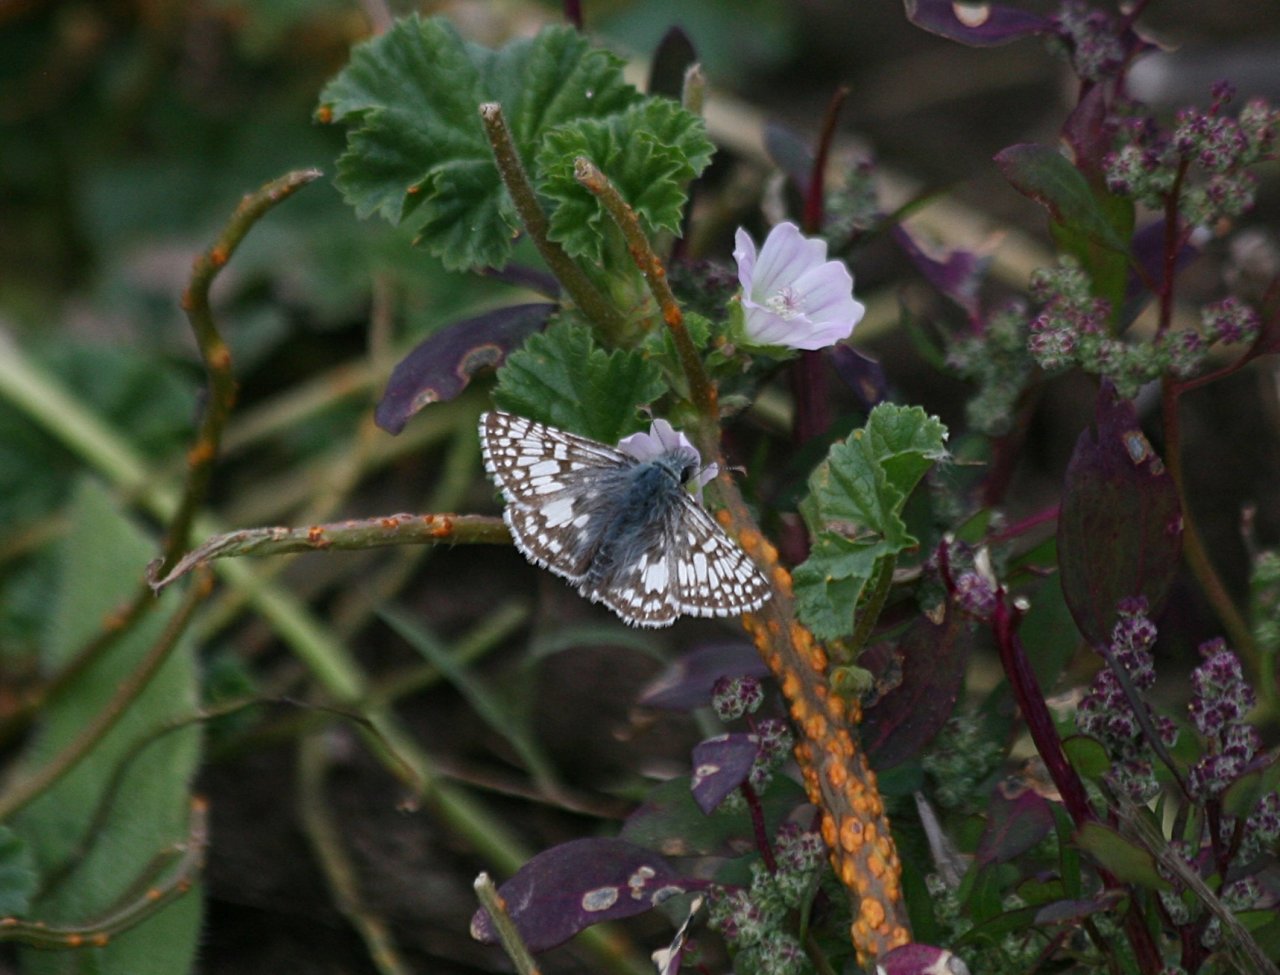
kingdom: Animalia
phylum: Arthropoda
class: Insecta
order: Lepidoptera
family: Hesperiidae
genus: Pyrgus
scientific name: Pyrgus communis
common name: Common Checkered-Skipper
